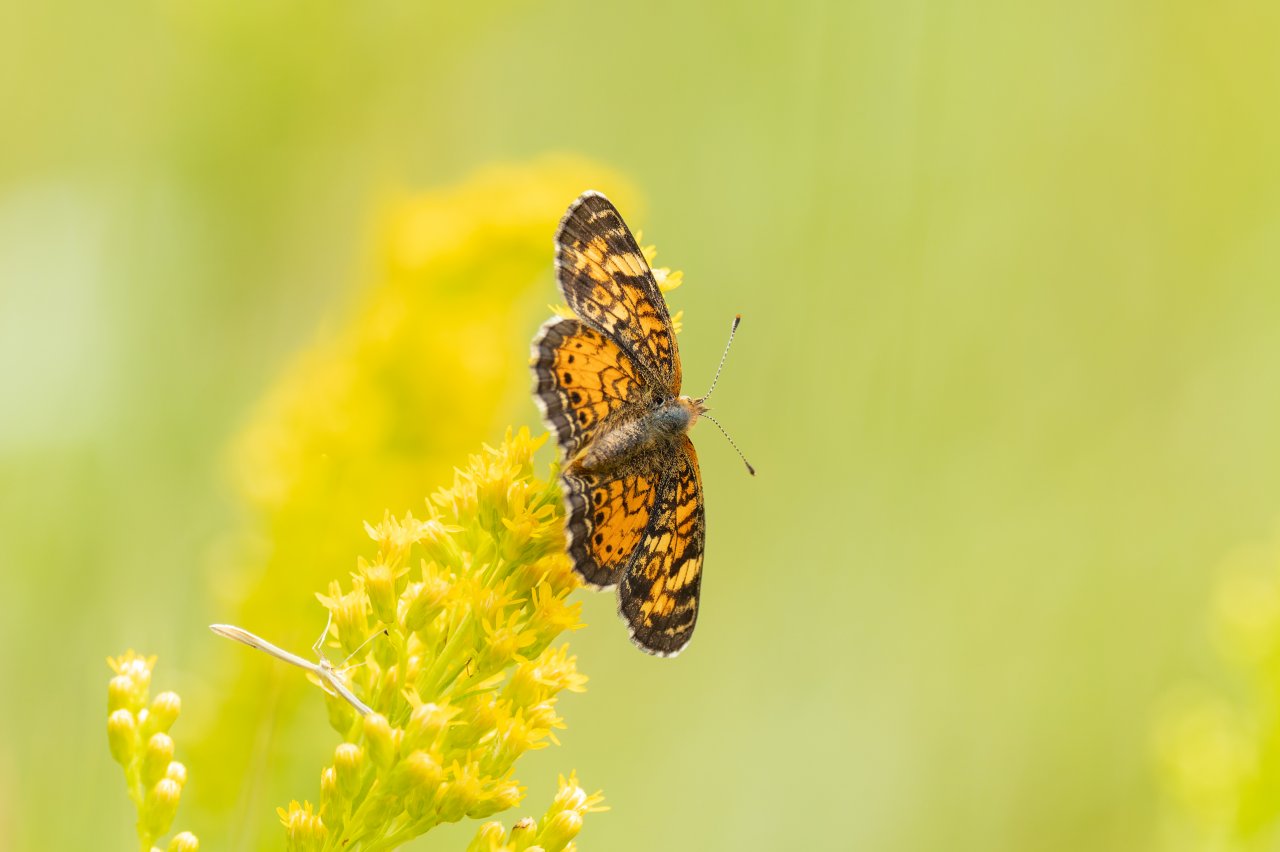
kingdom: Animalia
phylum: Arthropoda
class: Insecta
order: Lepidoptera
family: Nymphalidae
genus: Phyciodes
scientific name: Phyciodes tharos
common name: Northern Crescent
